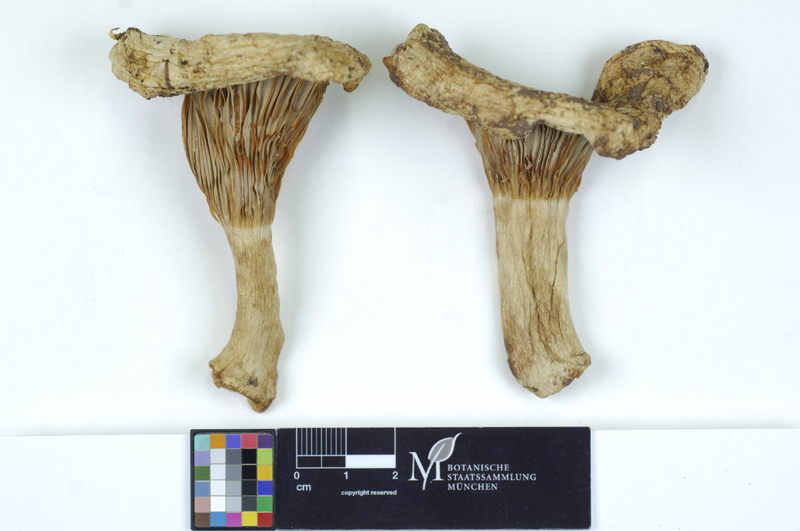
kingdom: Fungi
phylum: Basidiomycota
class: Agaricomycetes
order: Russulales
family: Russulaceae
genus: Russula
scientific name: Russula chloroides
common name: Blue band brittlegill
